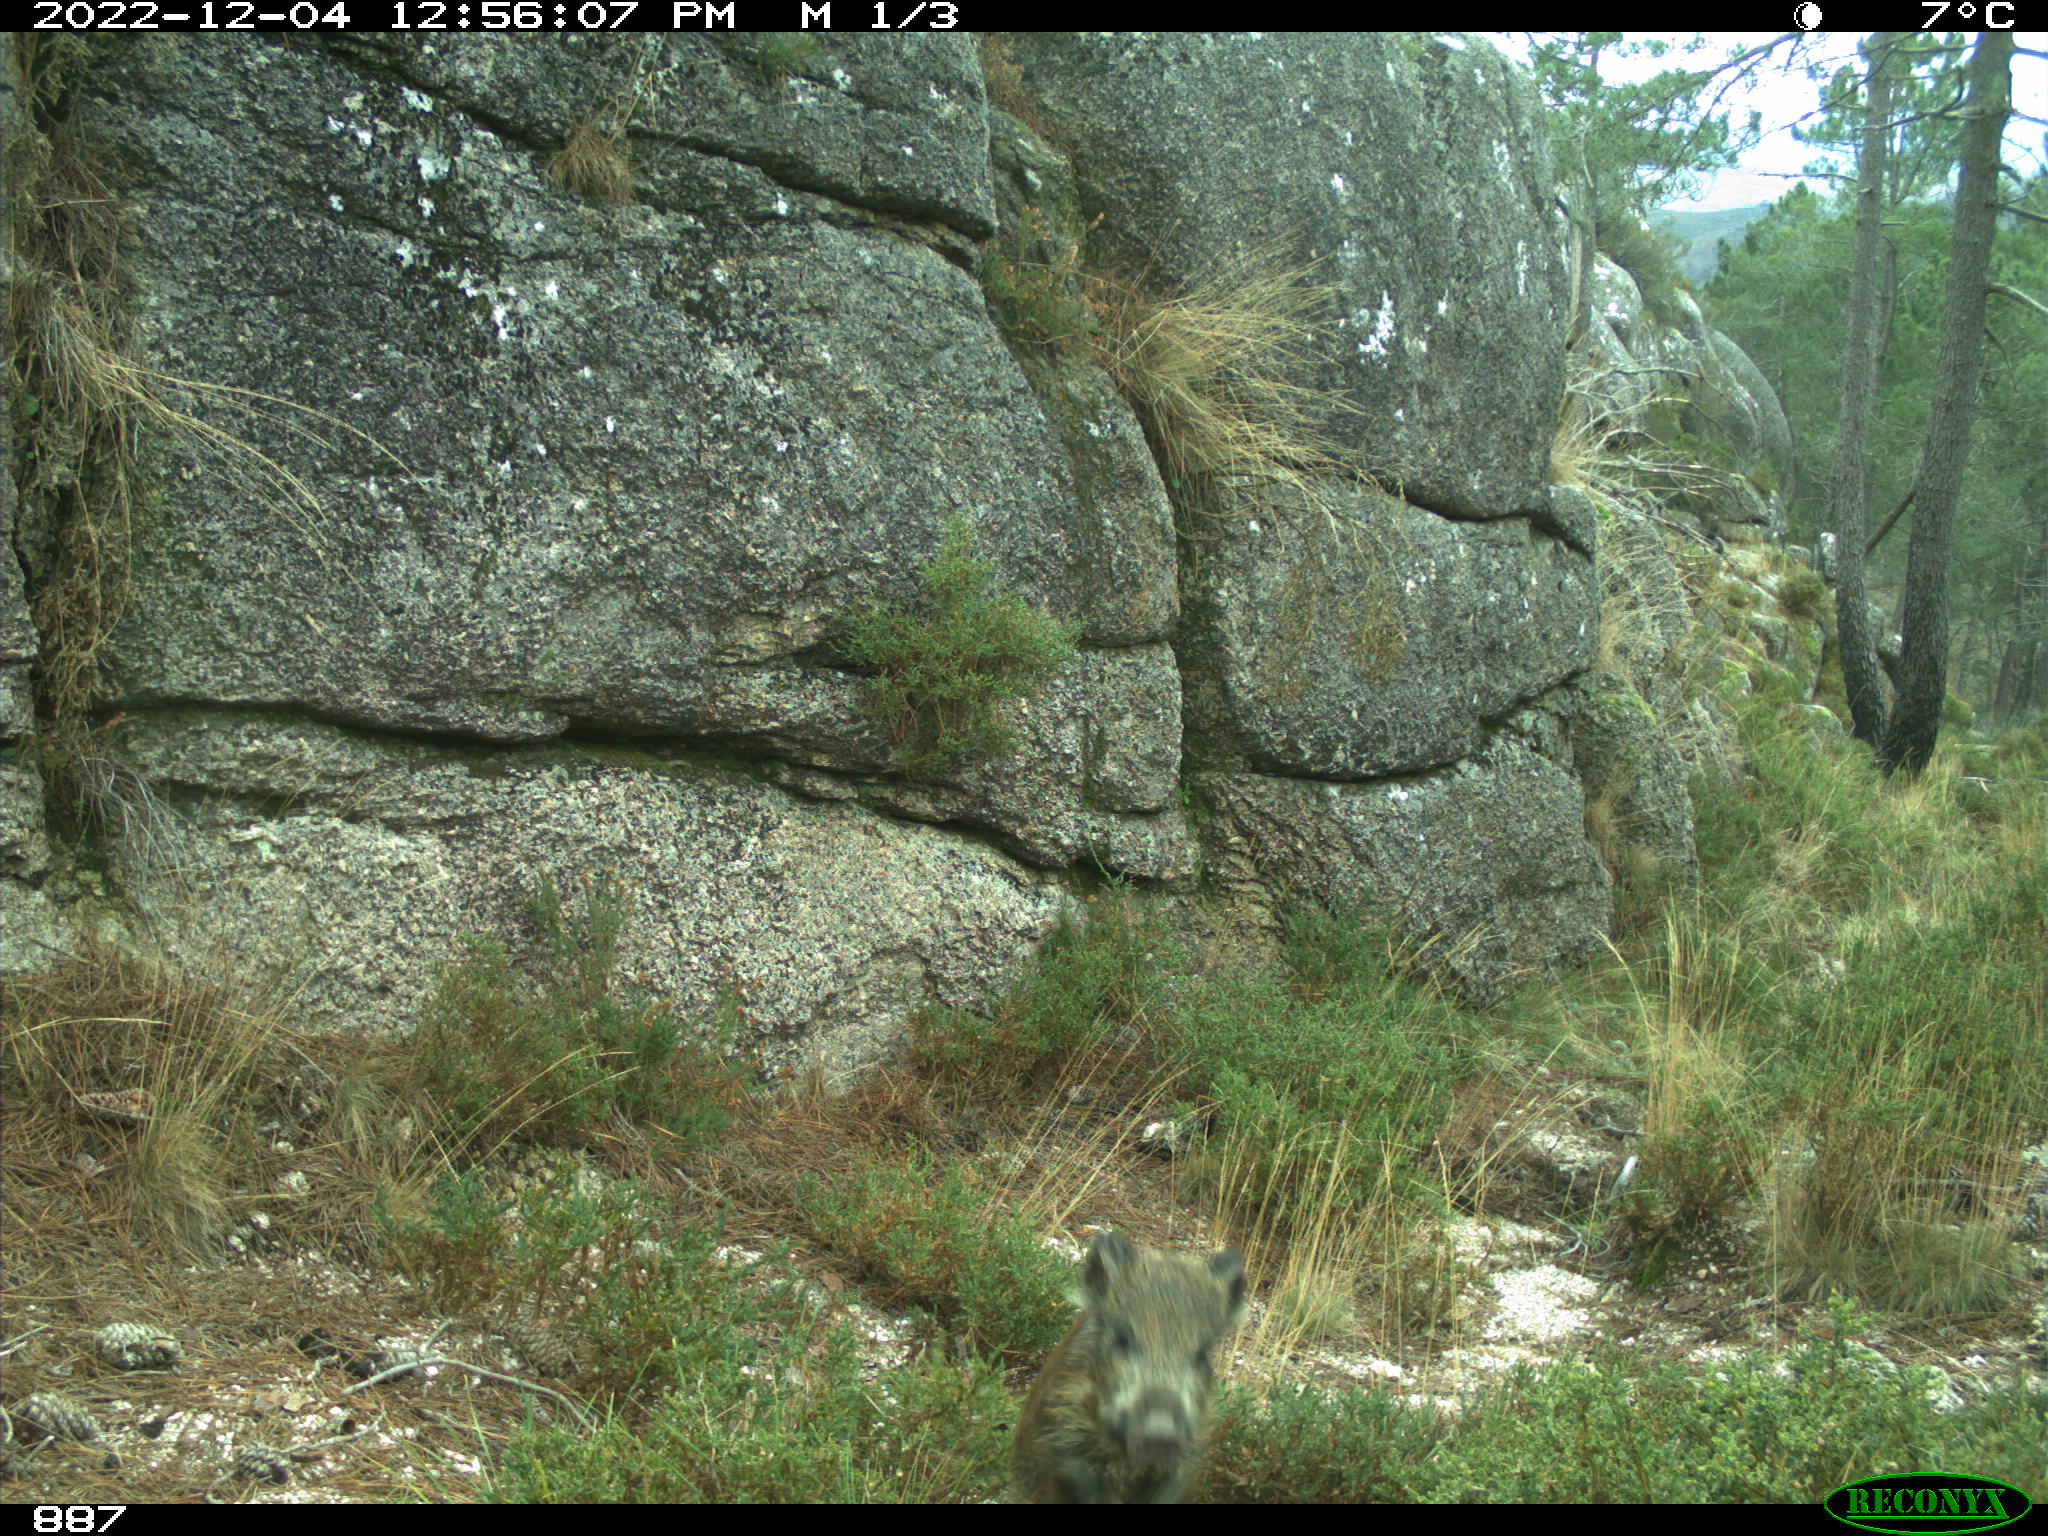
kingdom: Animalia
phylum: Chordata
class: Mammalia
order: Artiodactyla
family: Suidae
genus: Sus
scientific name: Sus scrofa
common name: Wild boar
